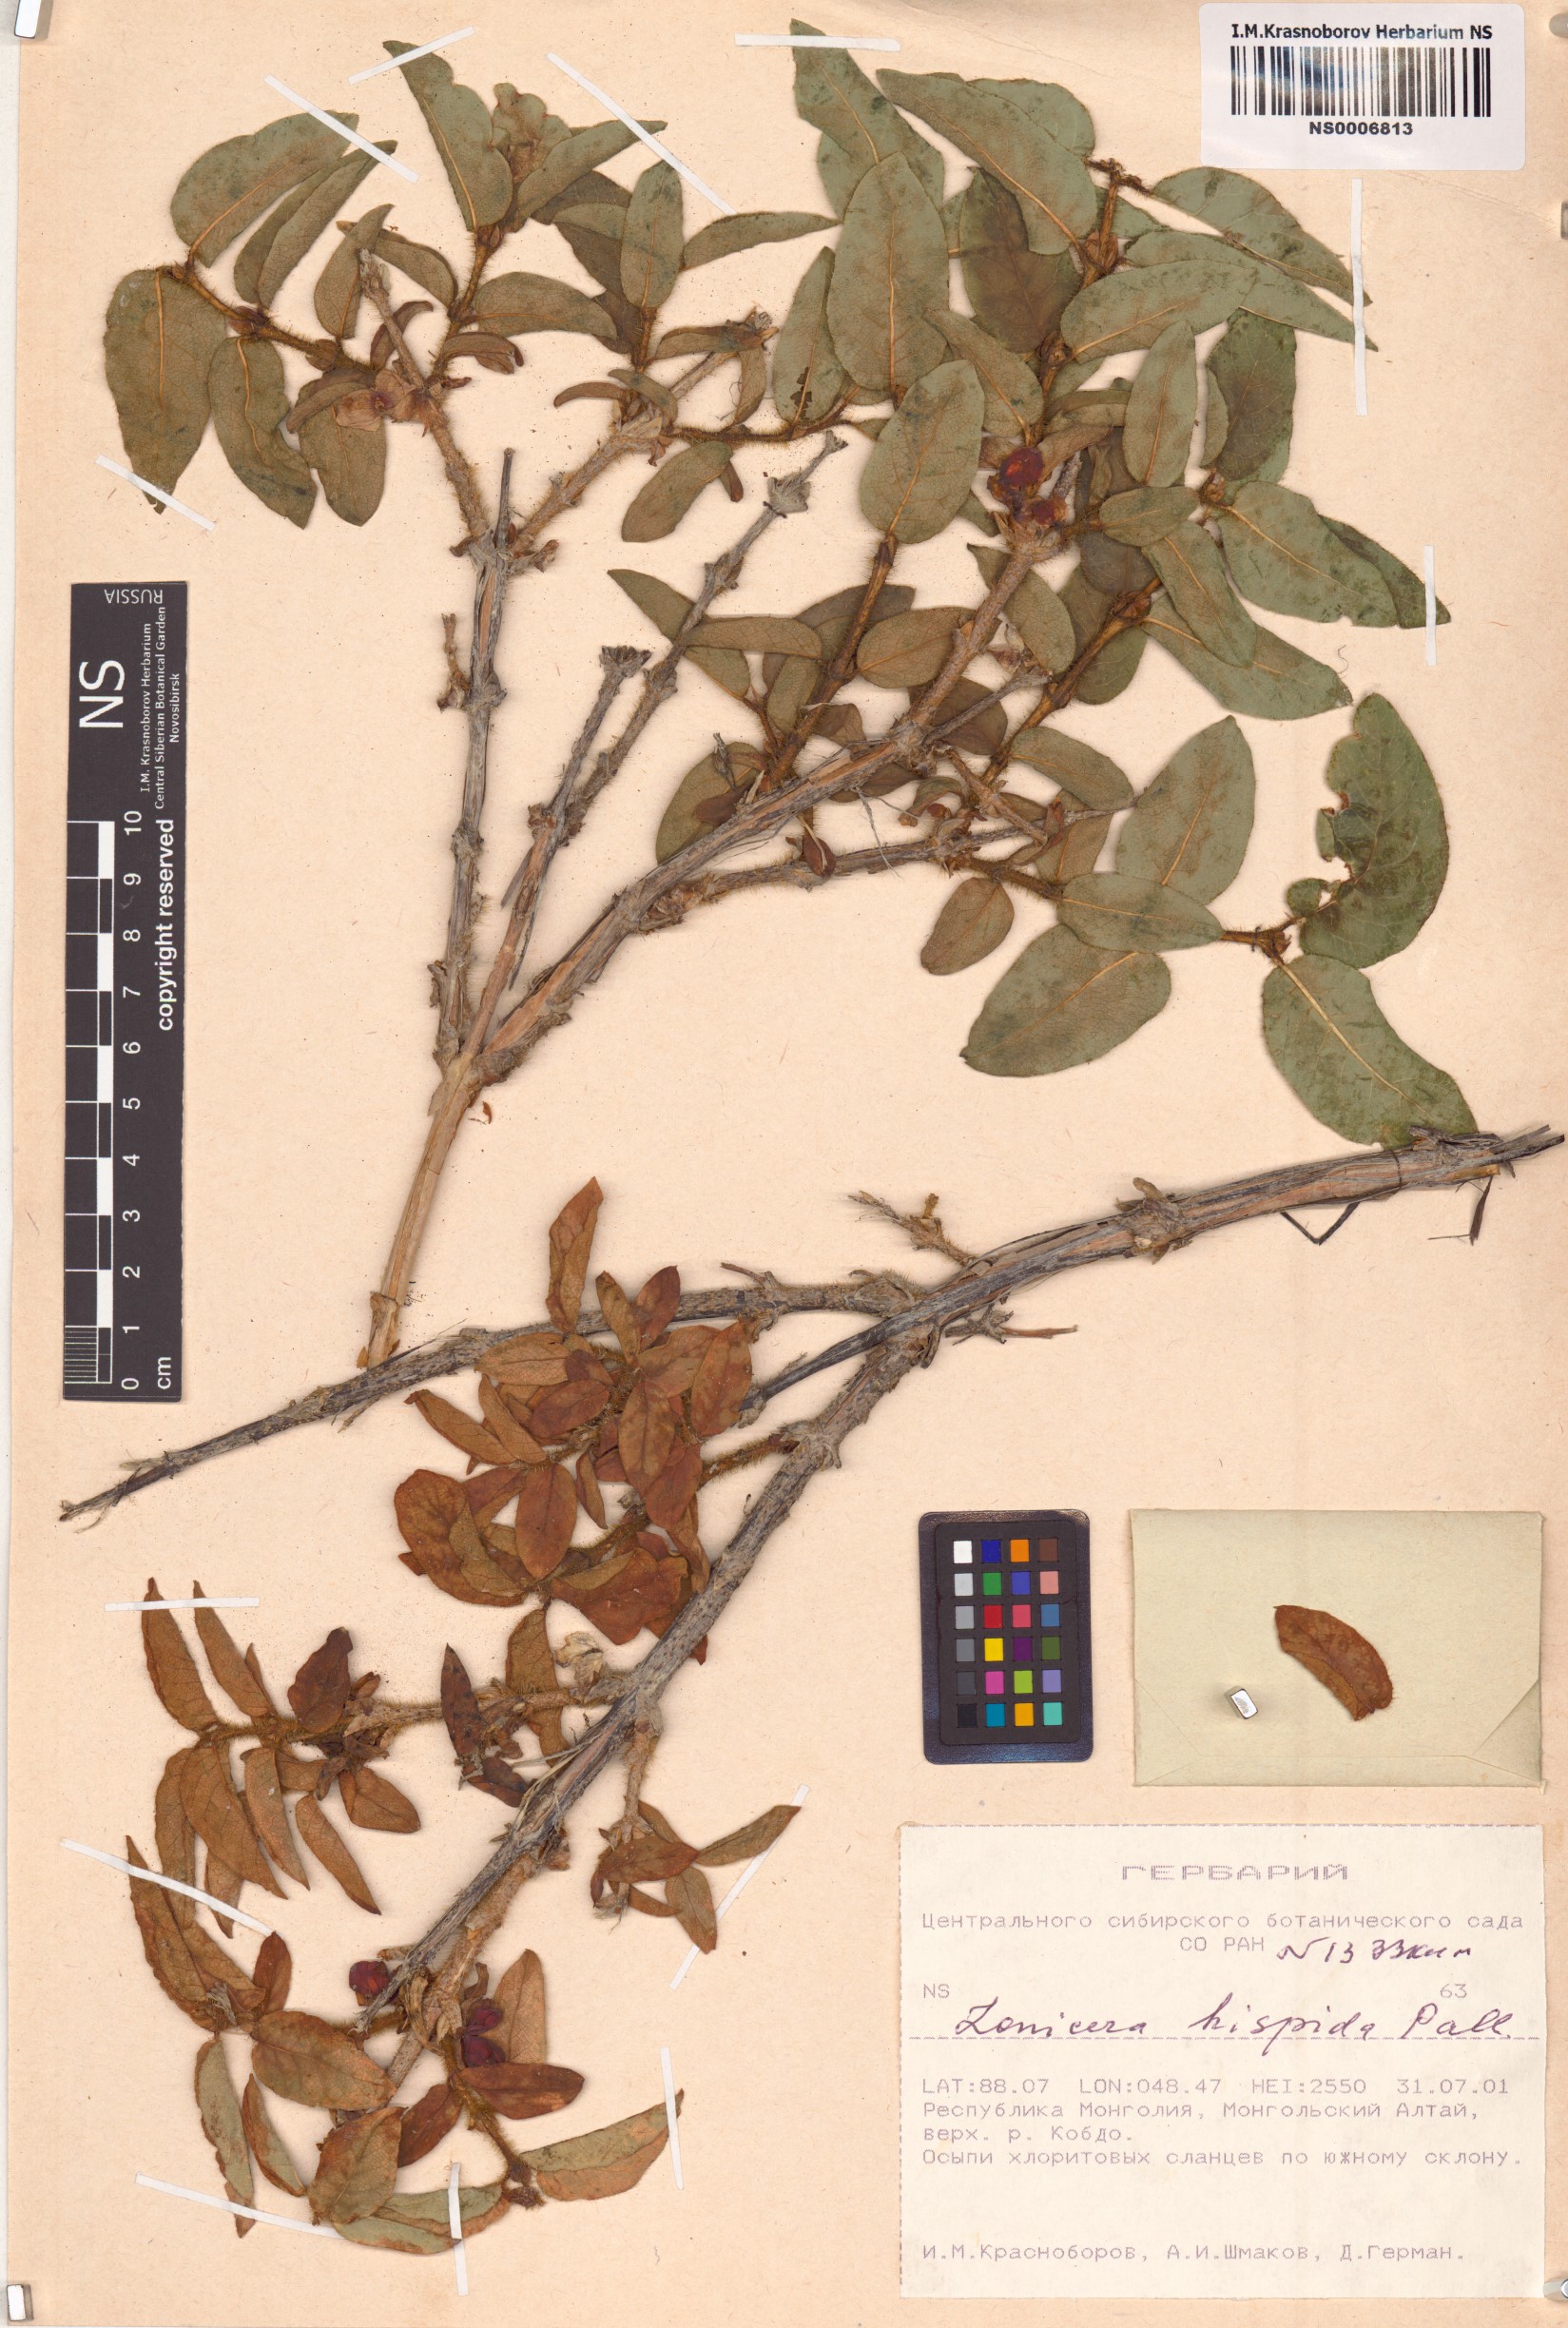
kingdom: Plantae
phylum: Tracheophyta
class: Magnoliopsida
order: Dipsacales
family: Caprifoliaceae
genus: Lonicera
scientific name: Lonicera hispida
